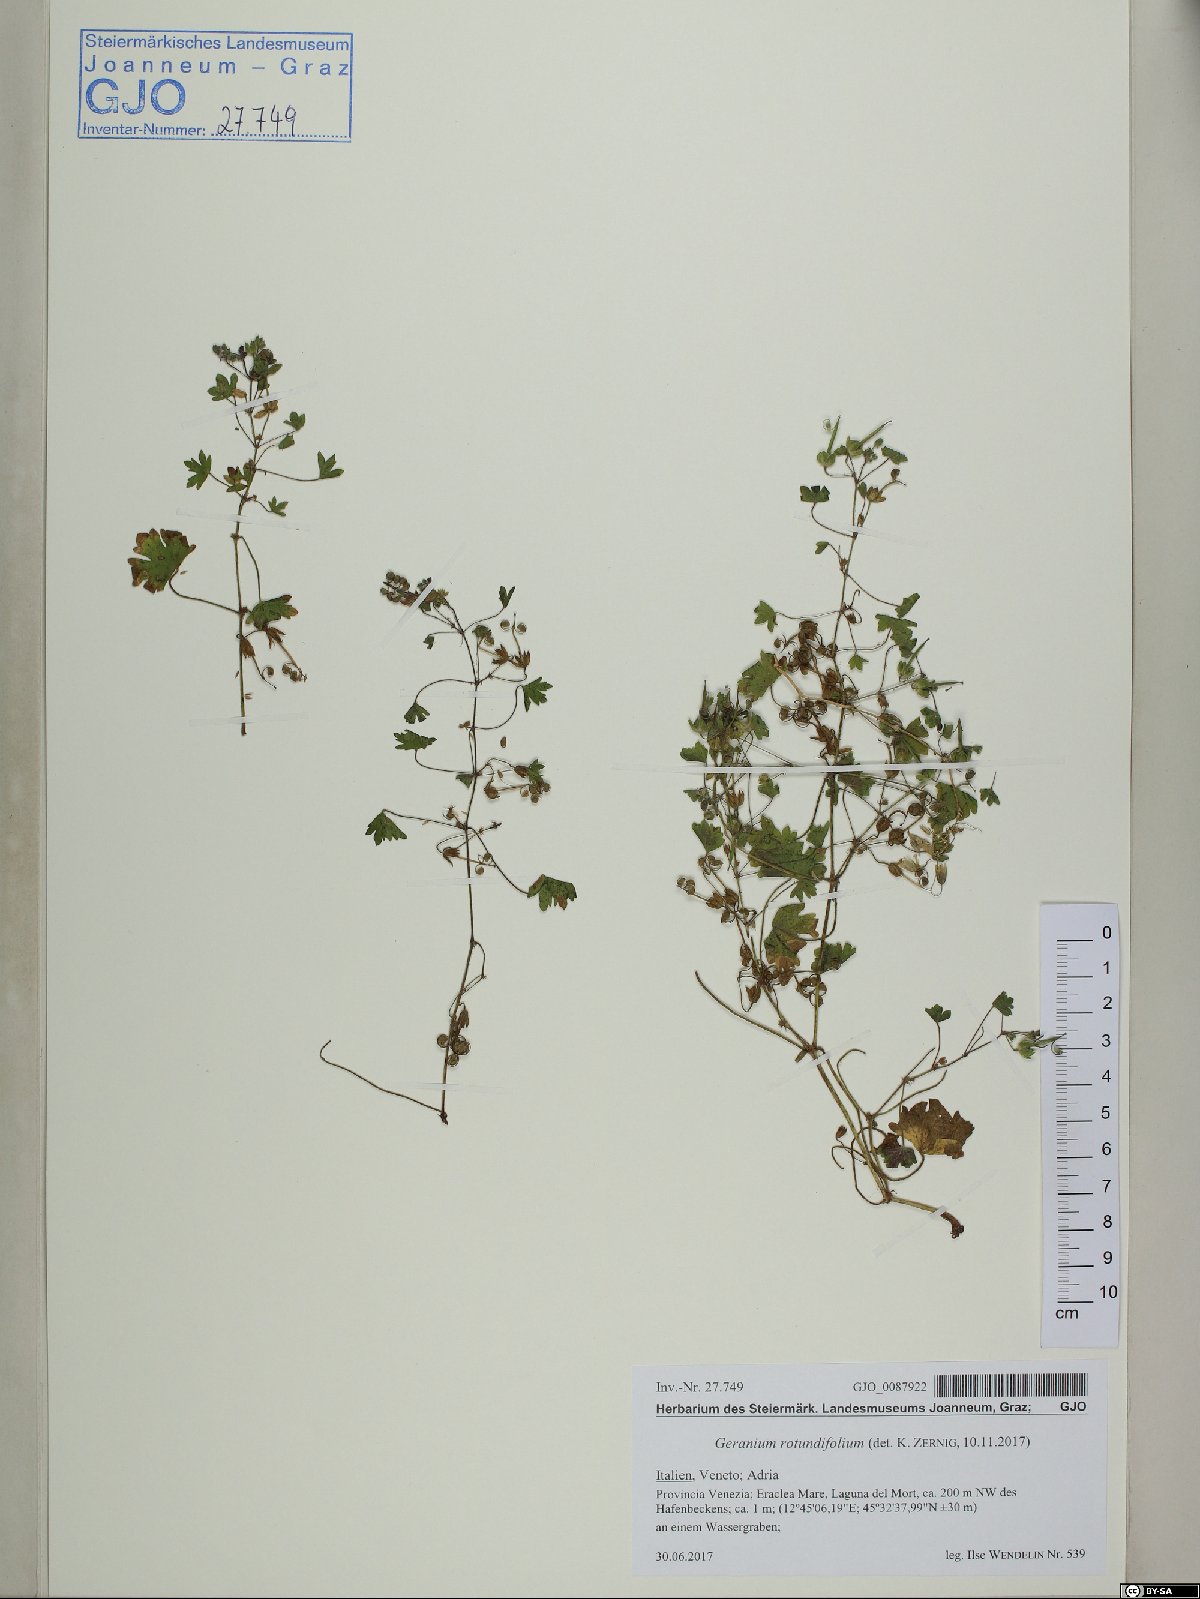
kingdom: Plantae
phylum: Tracheophyta
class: Magnoliopsida
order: Geraniales
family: Geraniaceae
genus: Geranium
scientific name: Geranium rotundifolium
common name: Round-leaved crane's-bill
